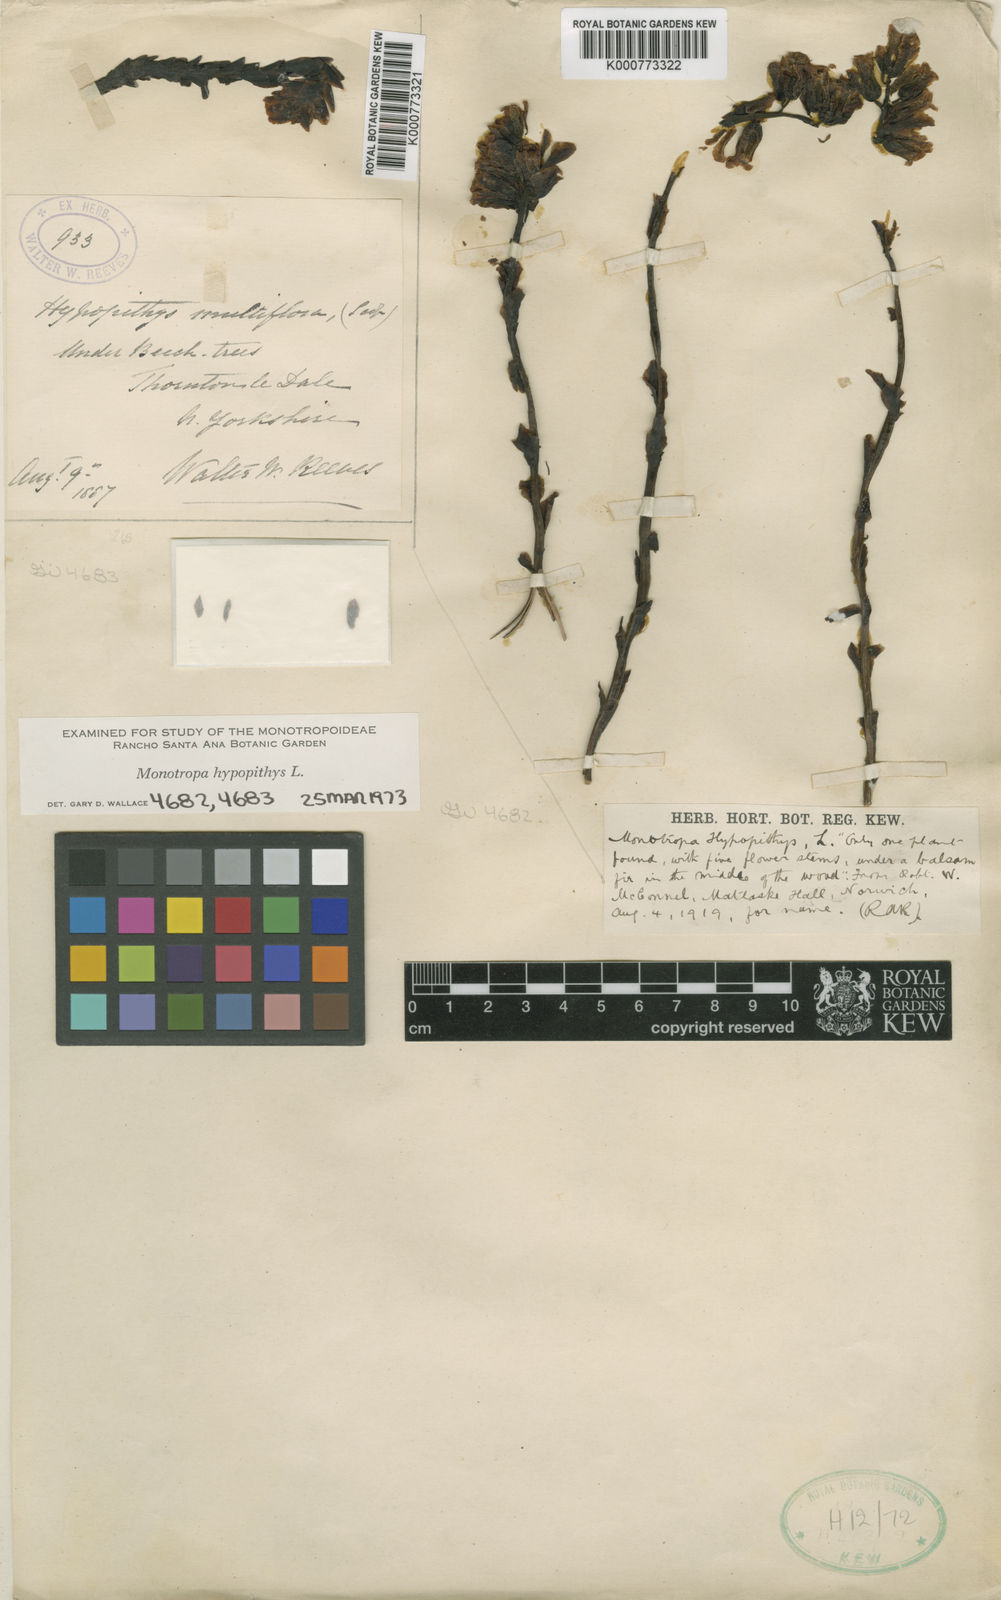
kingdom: Plantae
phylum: Tracheophyta
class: Magnoliopsida
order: Ericales
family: Ericaceae
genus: Monotropa
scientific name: Monotropa
